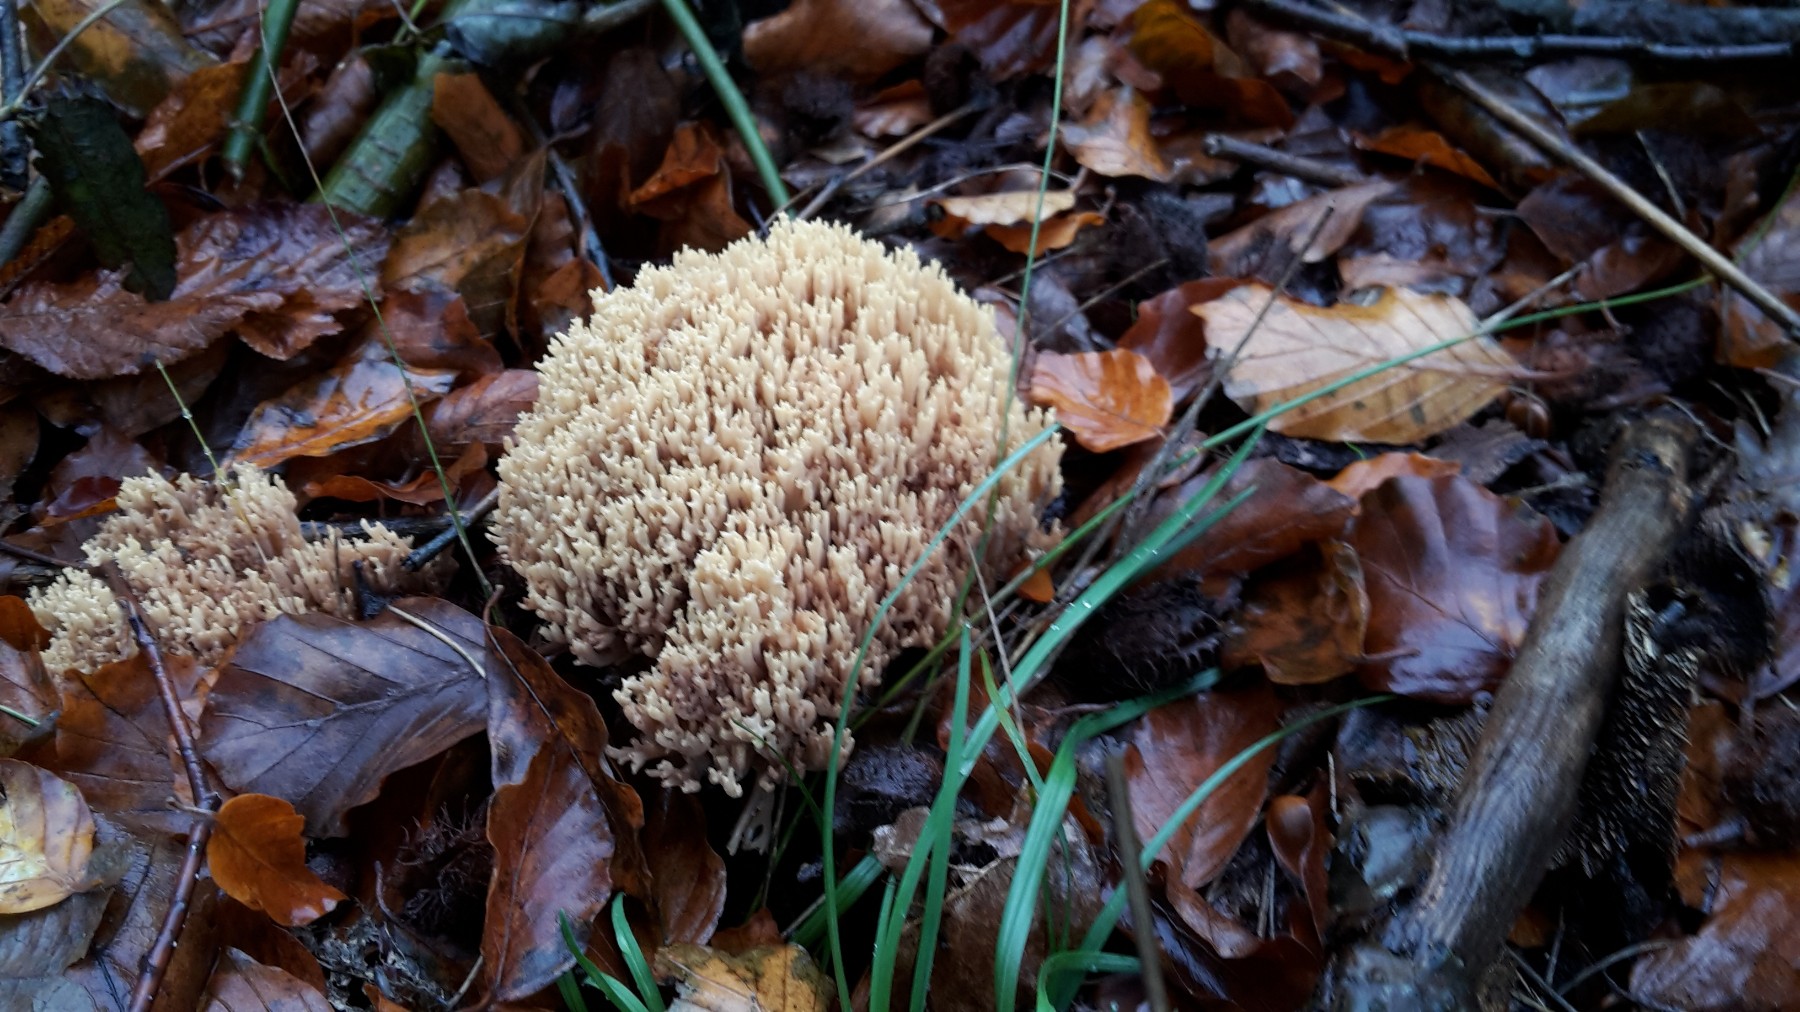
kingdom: Fungi
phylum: Basidiomycota
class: Agaricomycetes
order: Gomphales
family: Gomphaceae
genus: Ramaria
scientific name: Ramaria stricta
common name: rank koralsvamp
